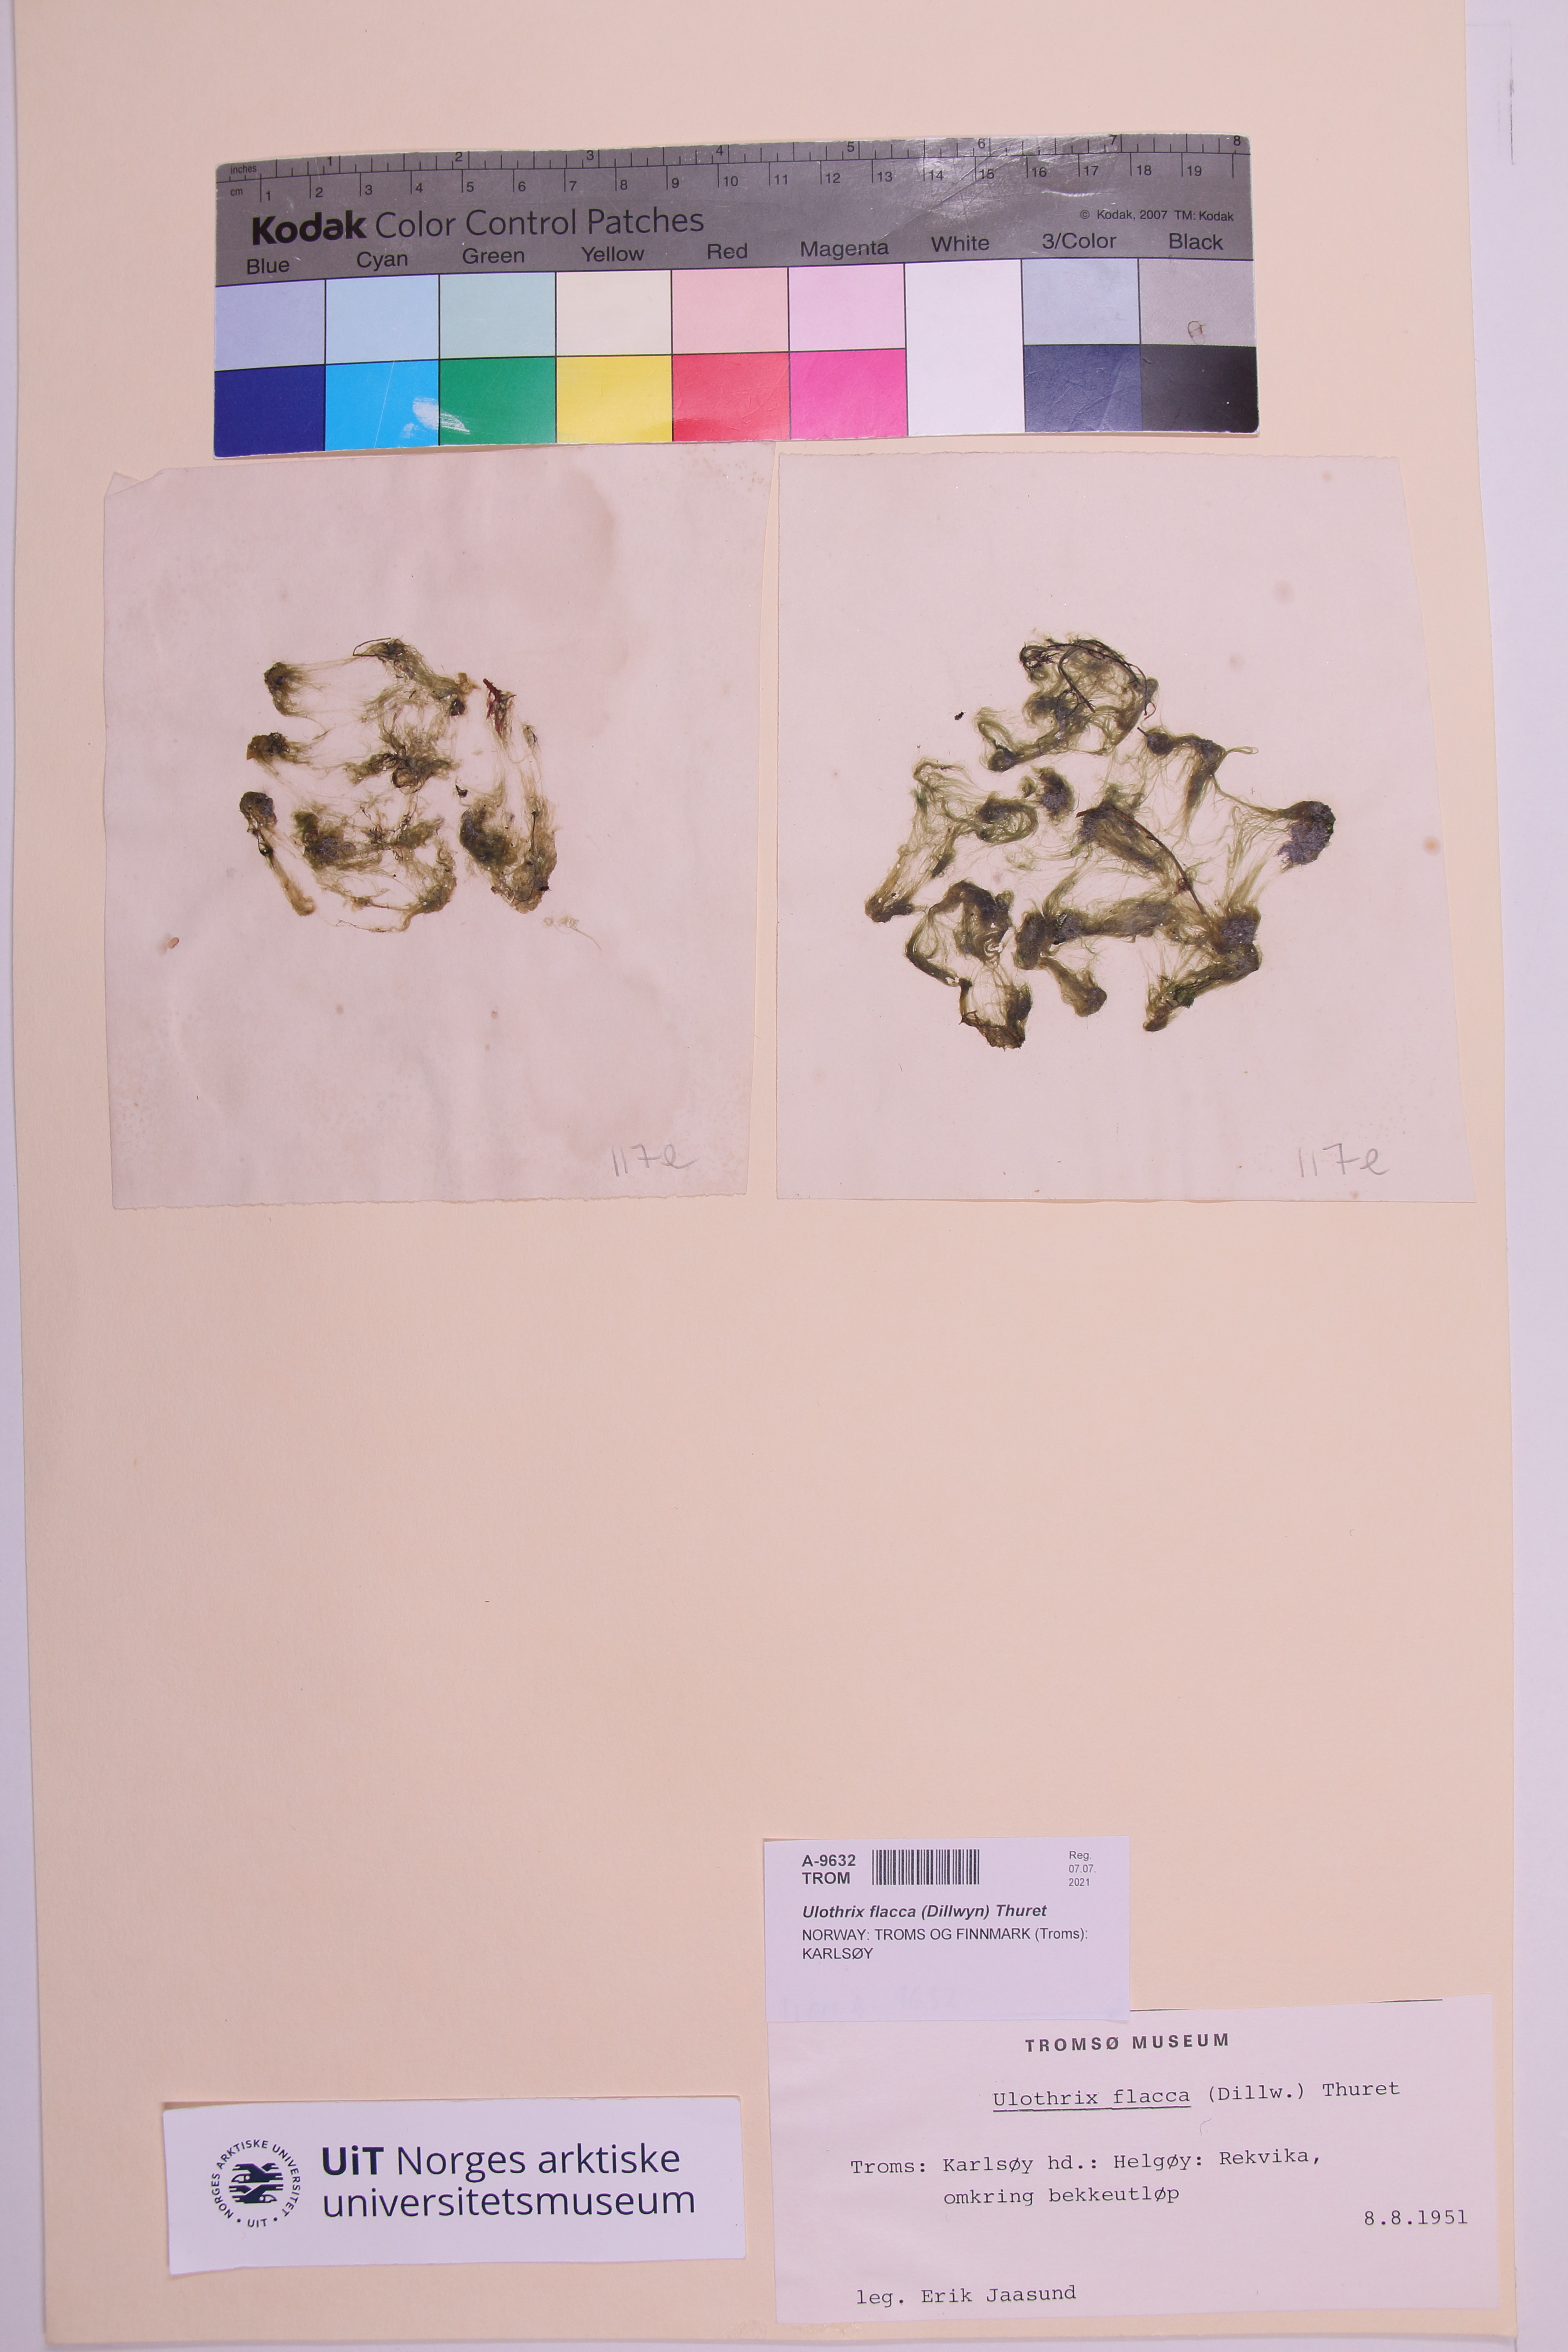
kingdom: Plantae
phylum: Chlorophyta
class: Ulvophyceae
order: Ulotrichales
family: Ulotrichaceae
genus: Ulothrix
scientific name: Ulothrix flacca
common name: Woolly hair
